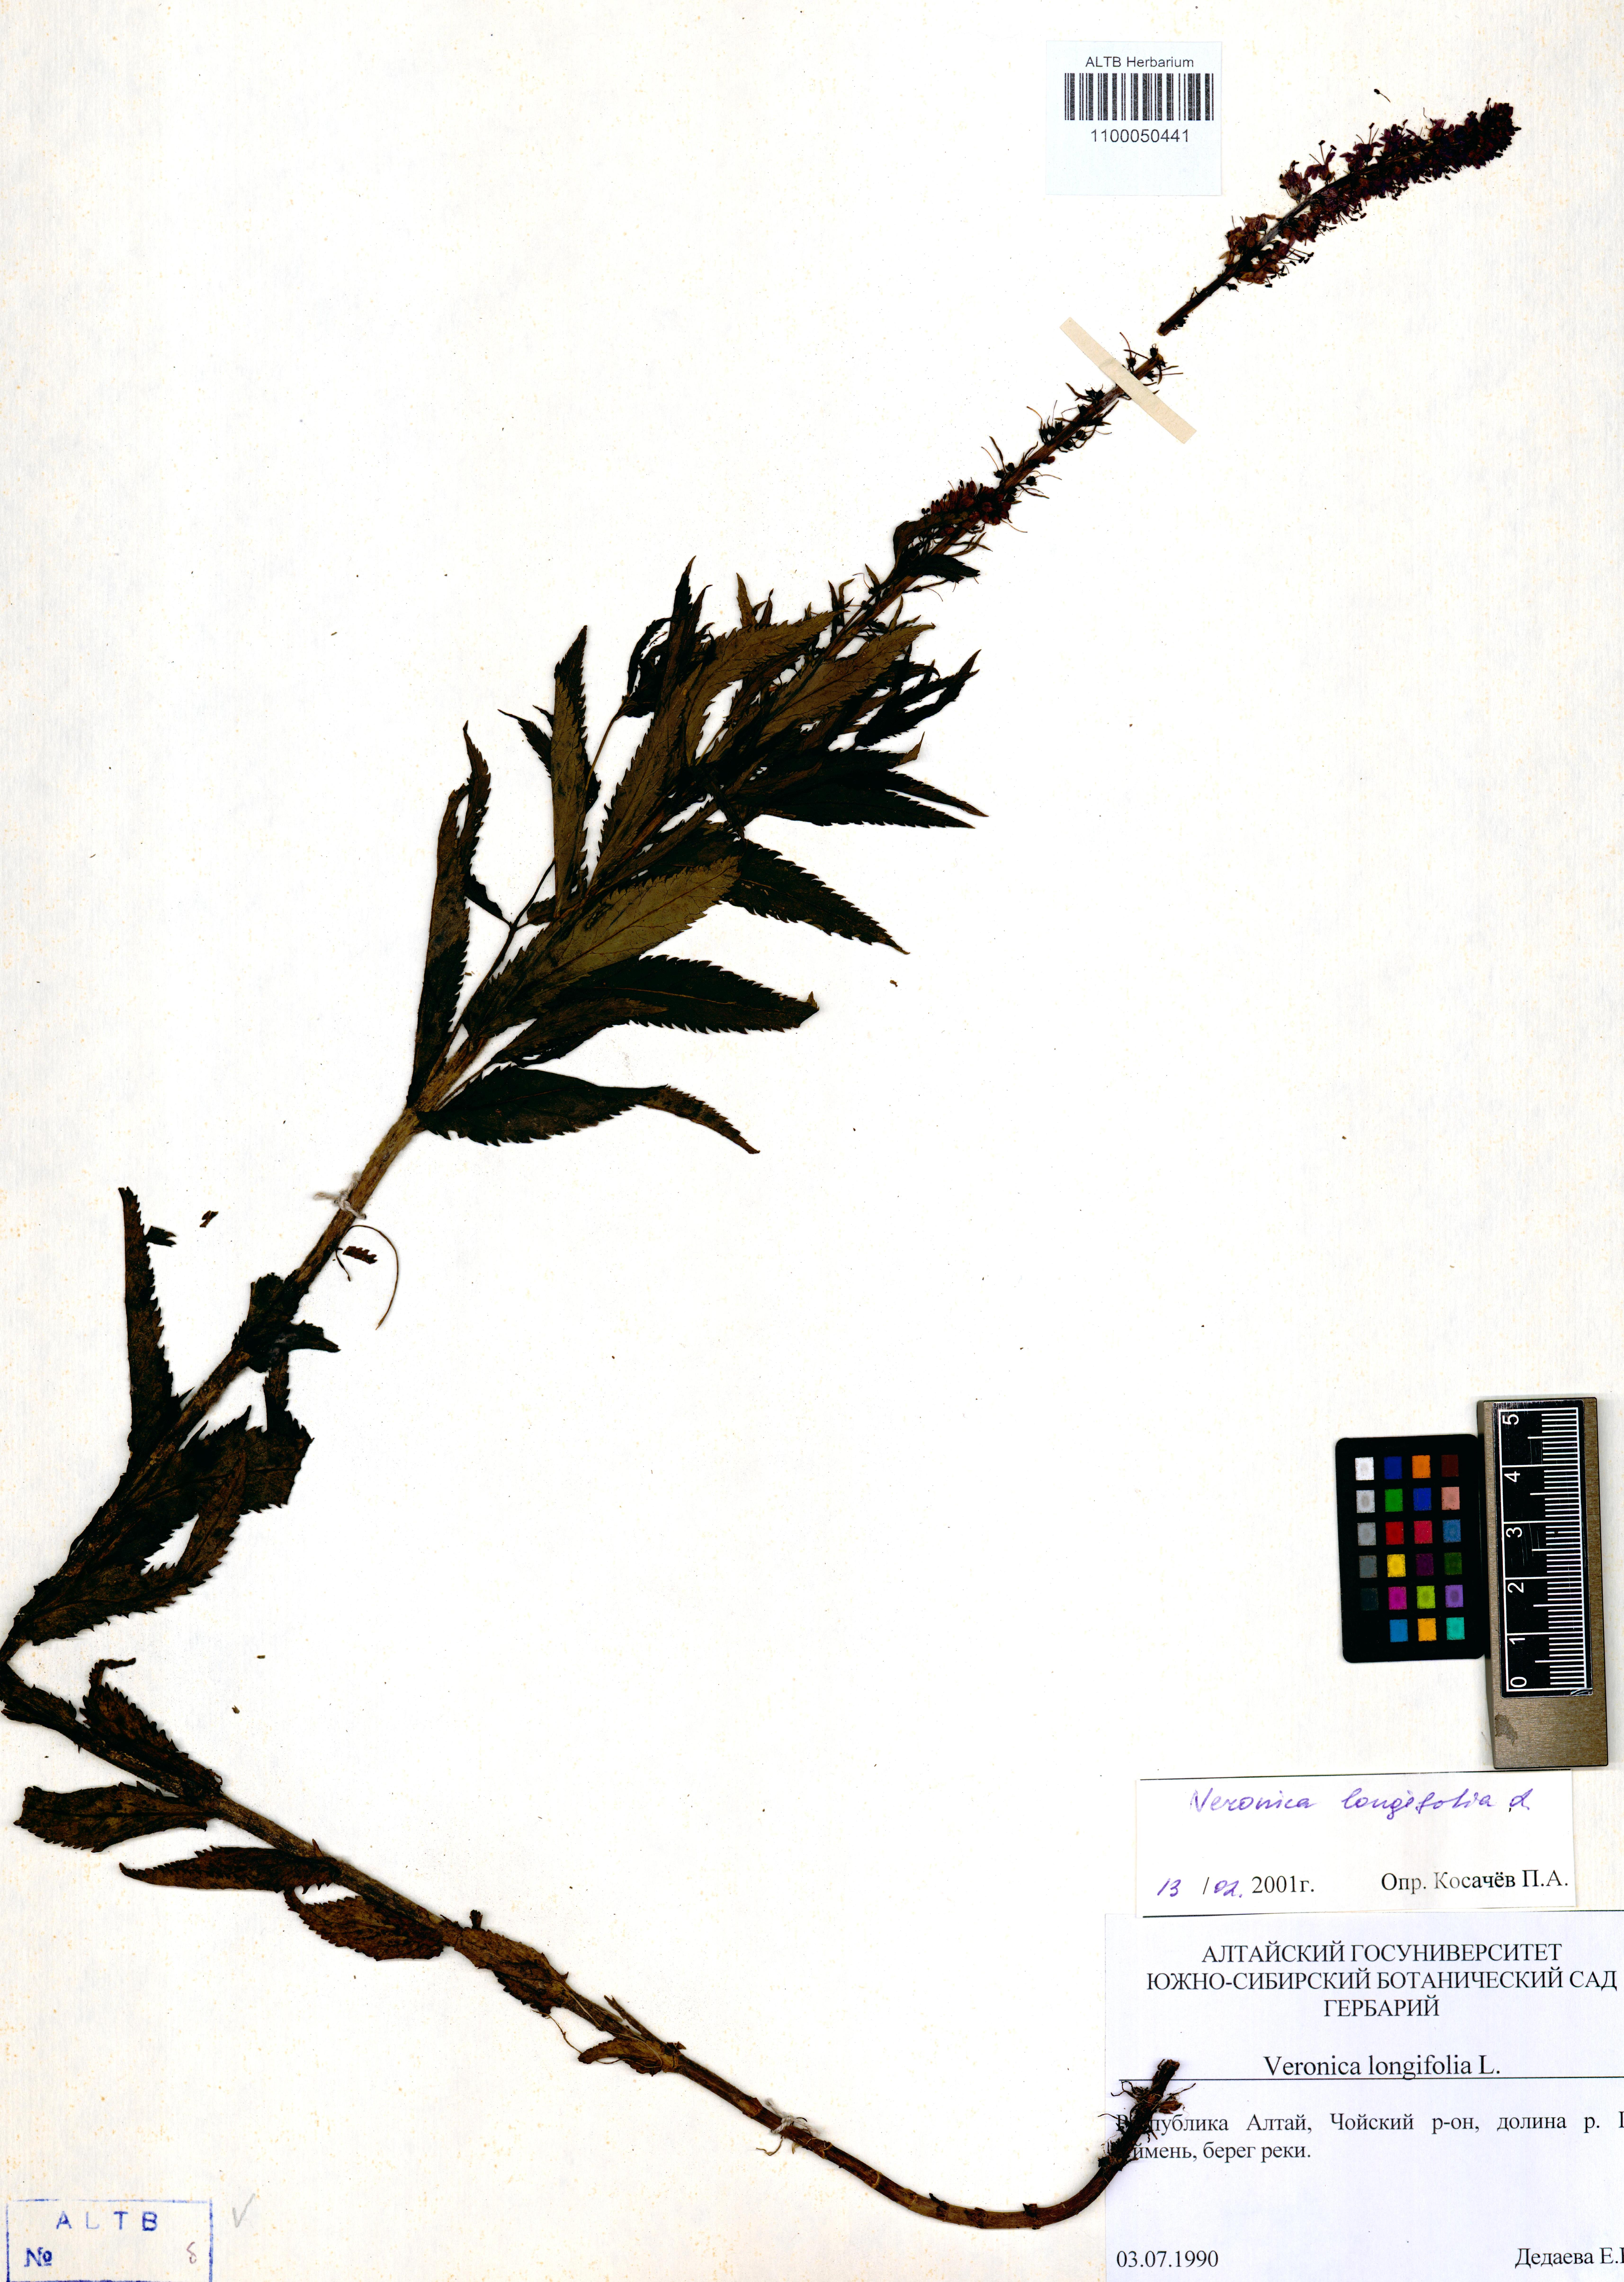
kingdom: Plantae
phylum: Tracheophyta
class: Magnoliopsida
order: Lamiales
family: Plantaginaceae
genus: Veronica
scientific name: Veronica longifolia
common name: Garden speedwell
